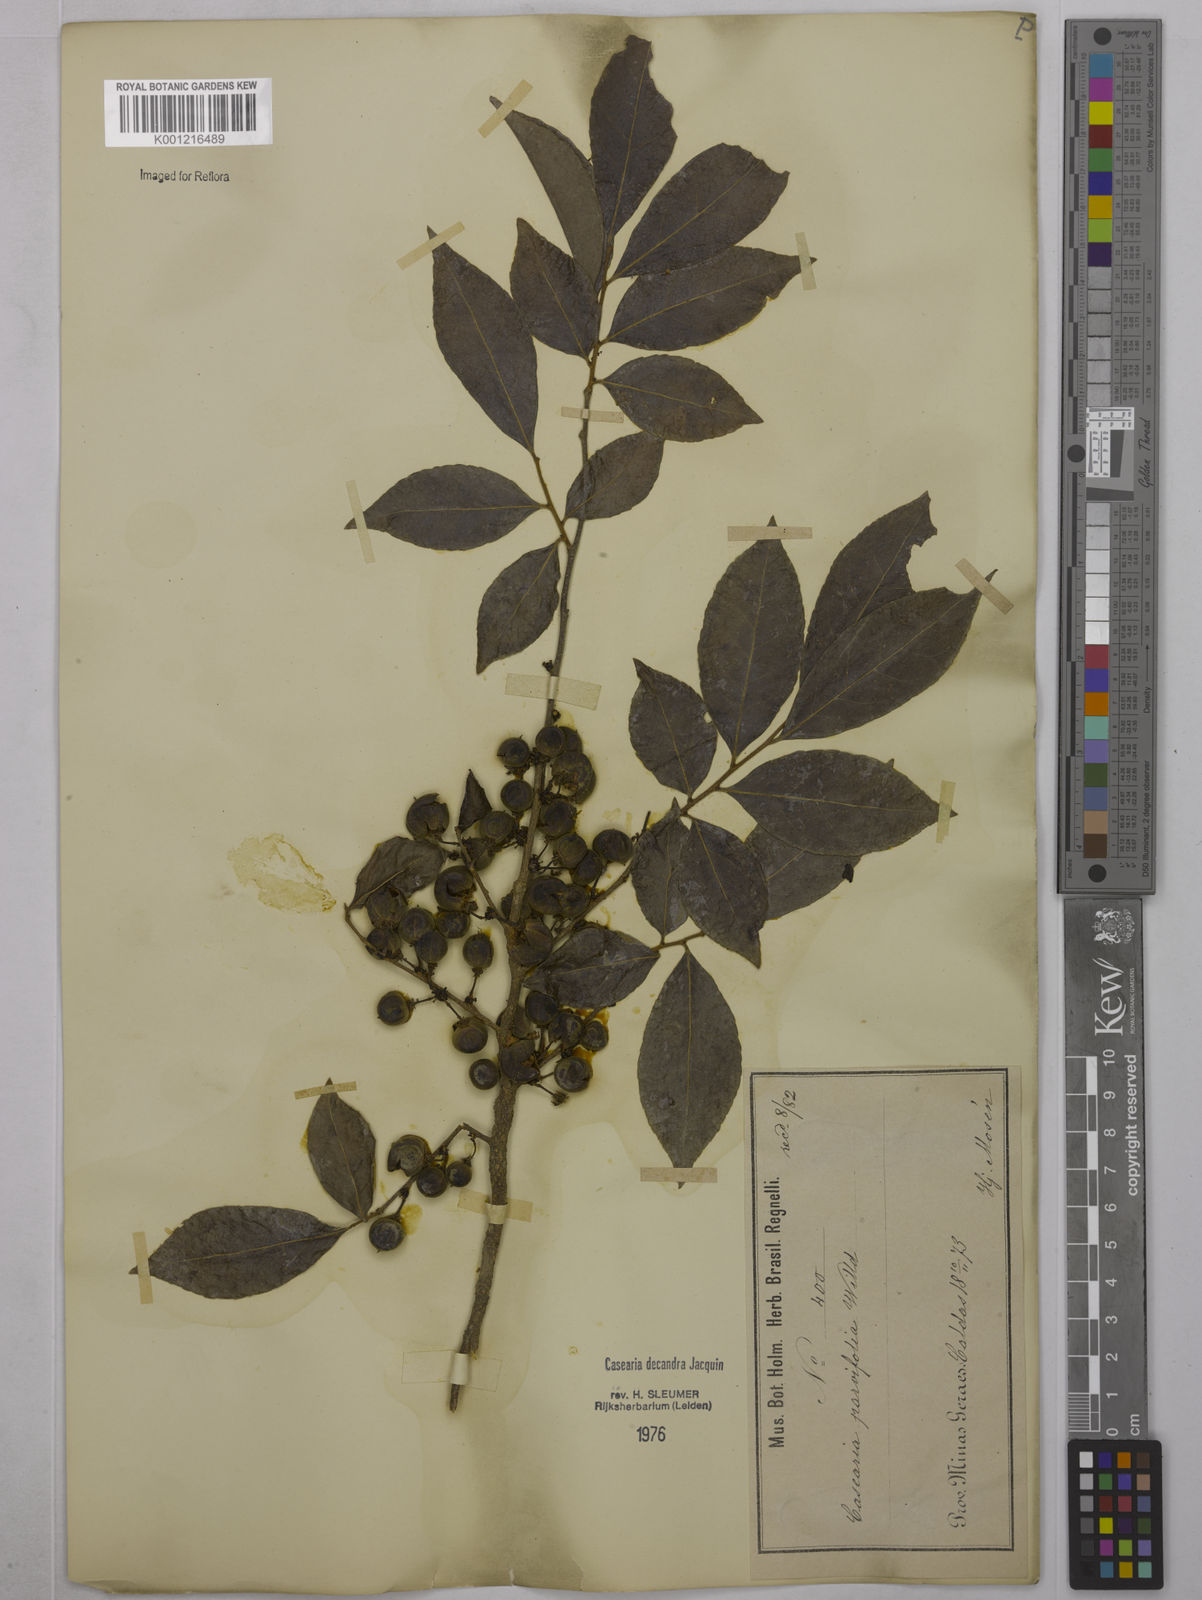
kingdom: Plantae
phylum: Tracheophyta
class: Magnoliopsida
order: Malpighiales
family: Salicaceae
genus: Casearia
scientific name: Casearia decandra
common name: Crack open
